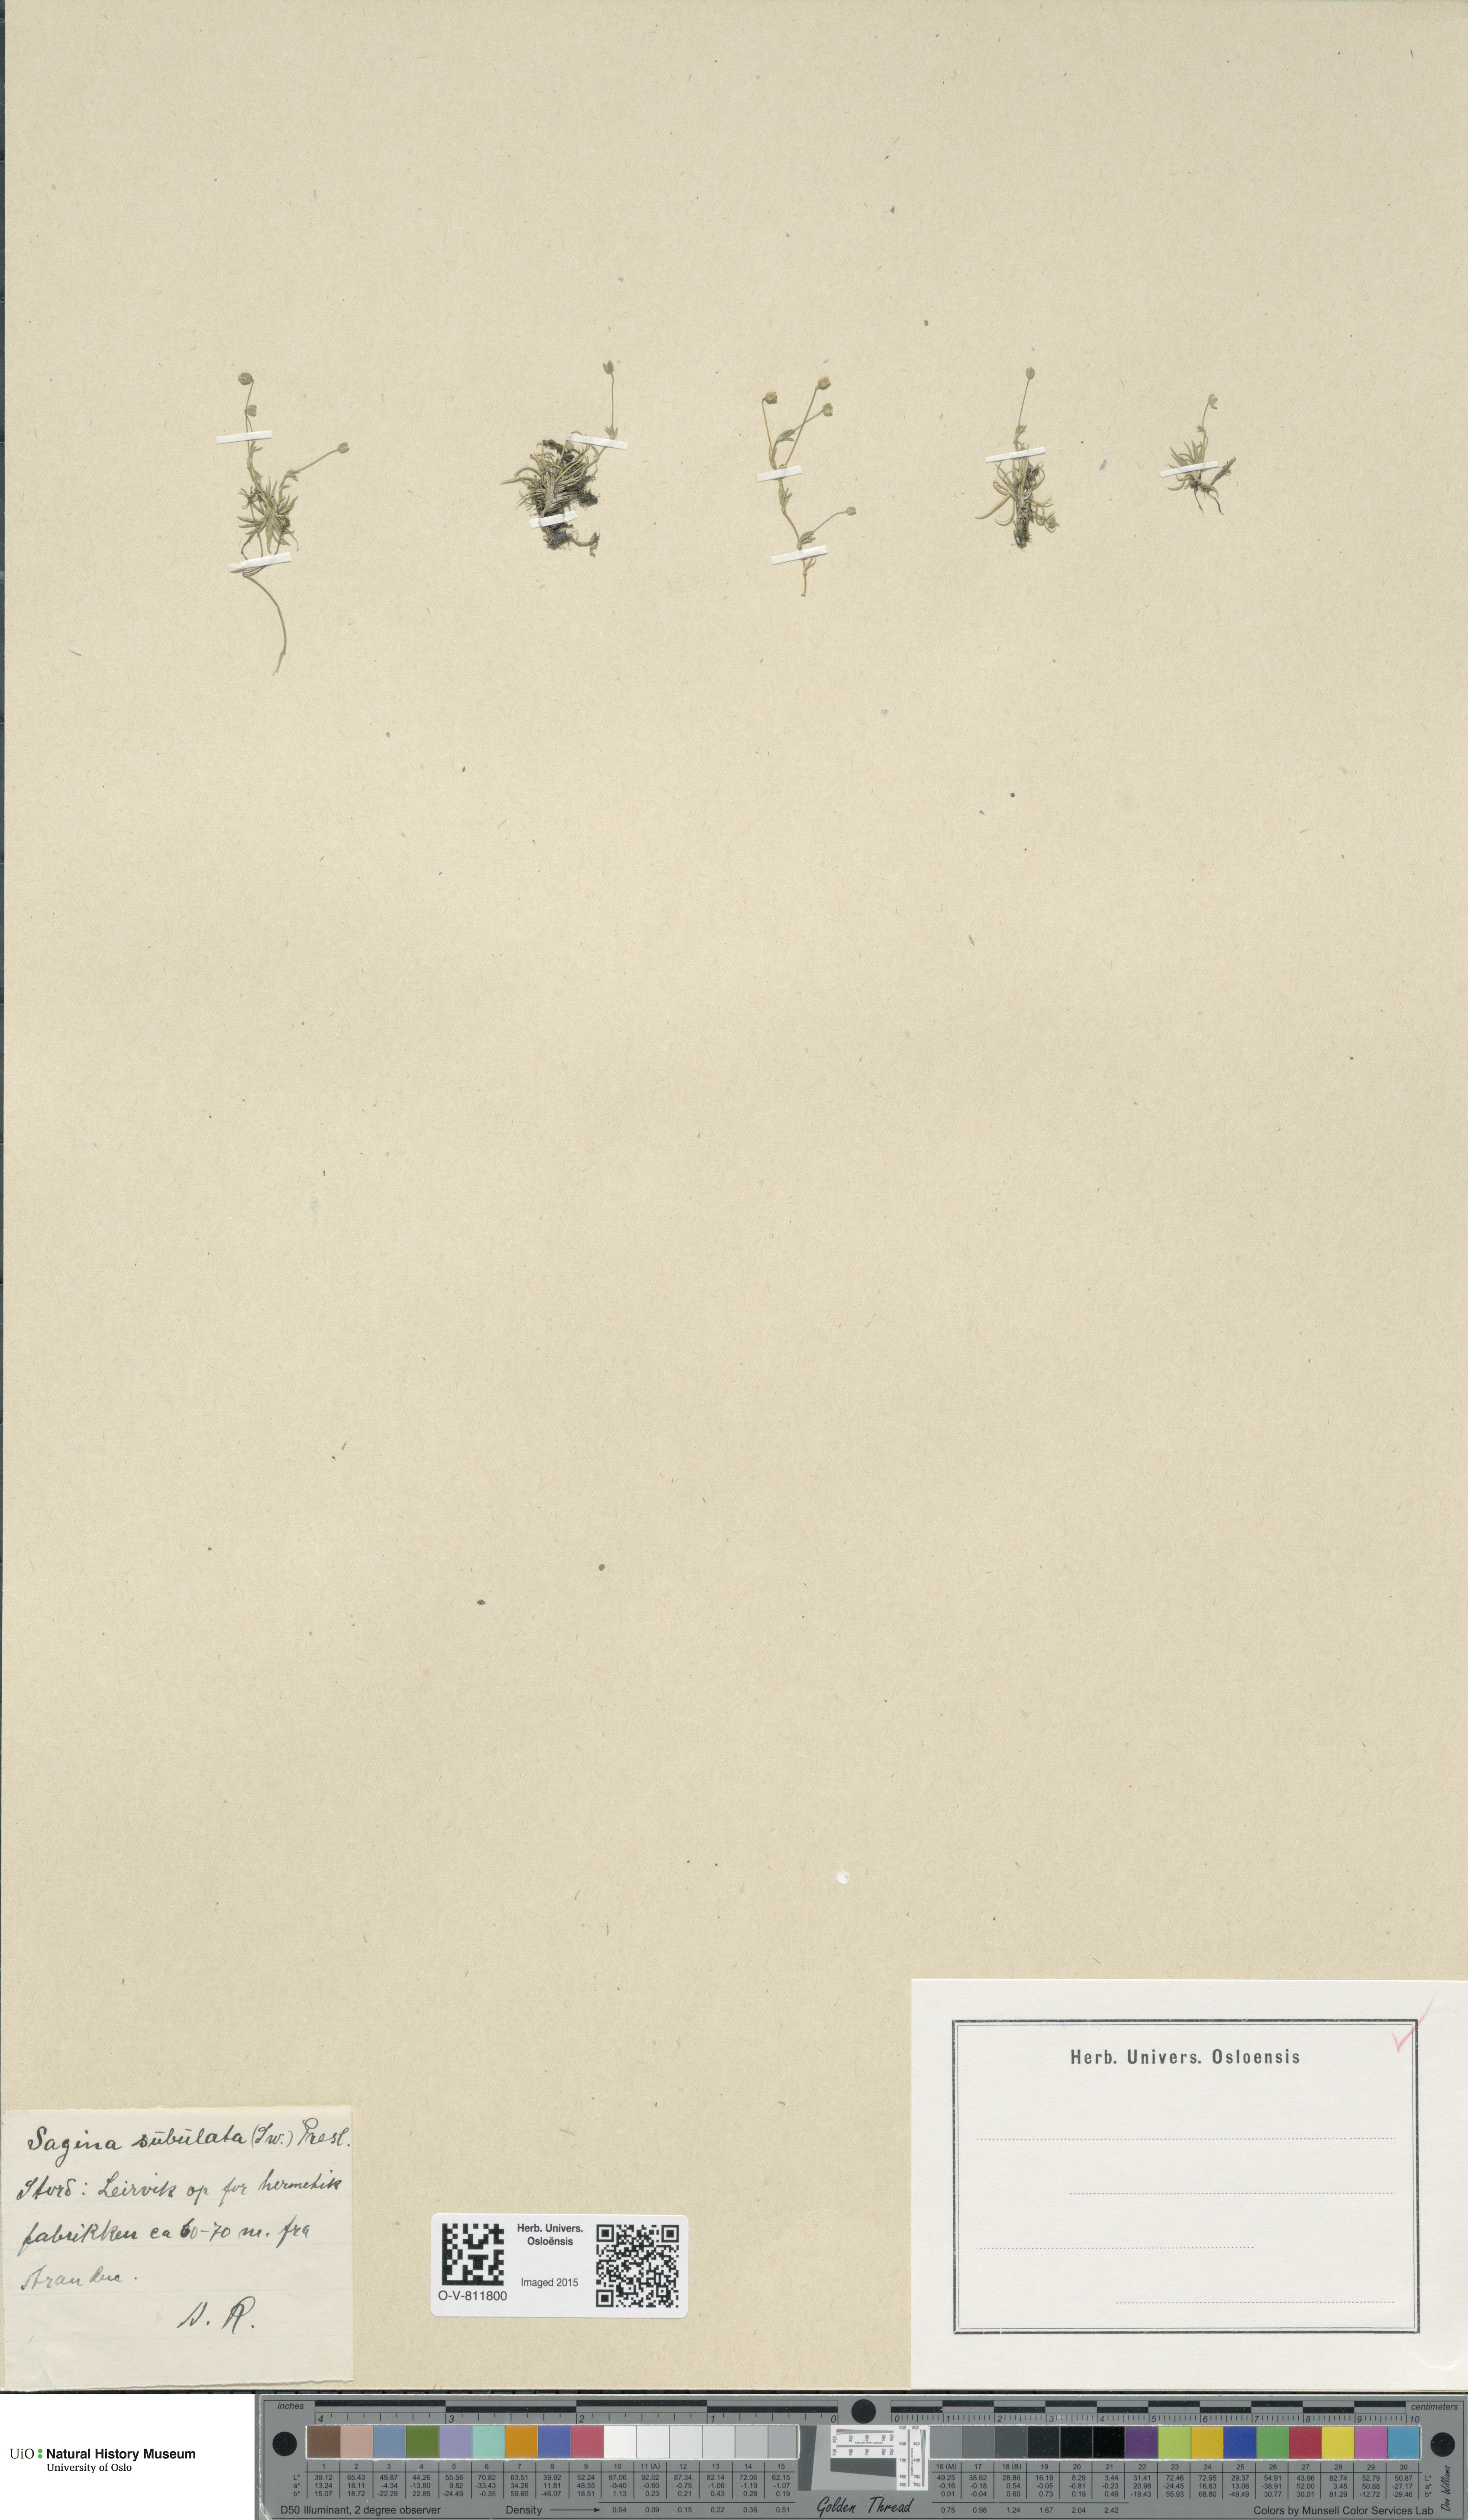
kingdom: Plantae
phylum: Tracheophyta
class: Magnoliopsida
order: Caryophyllales
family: Caryophyllaceae
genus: Sagina
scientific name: Sagina alexandrae
